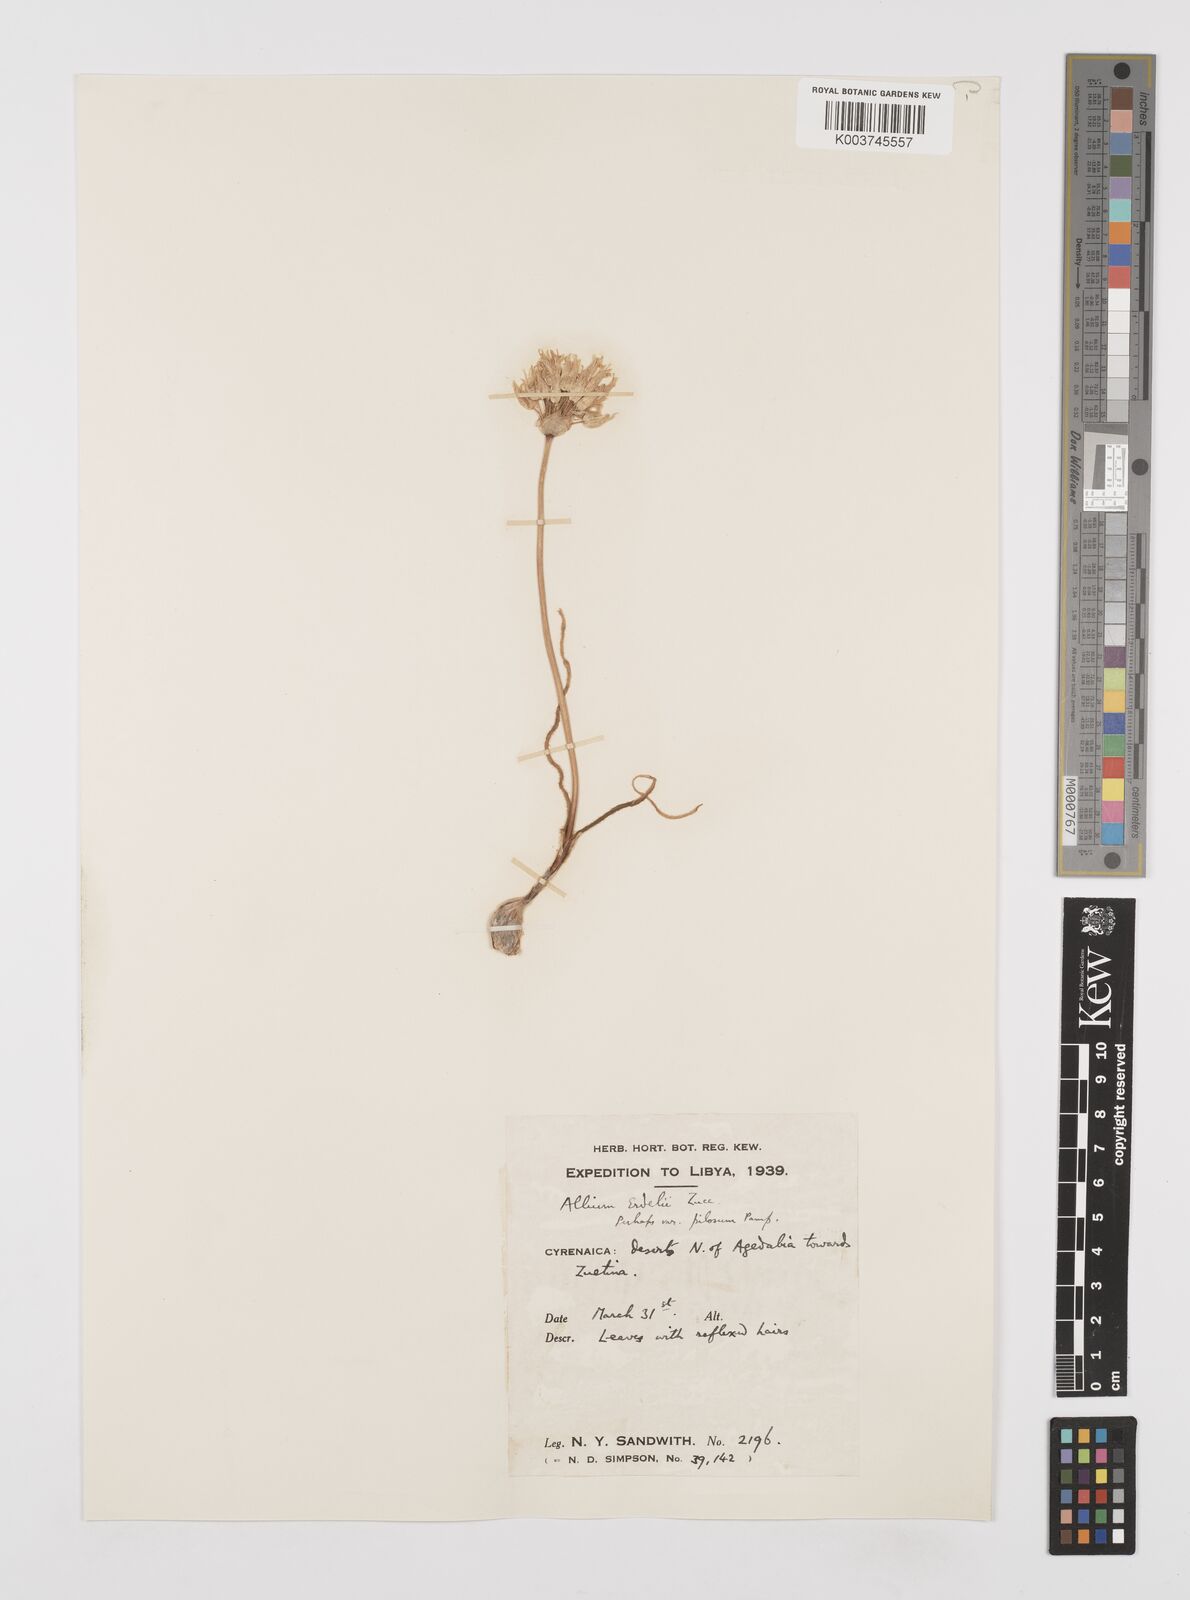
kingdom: Plantae
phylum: Tracheophyta
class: Liliopsida
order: Asparagales
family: Amaryllidaceae
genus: Allium
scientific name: Allium erdelii
